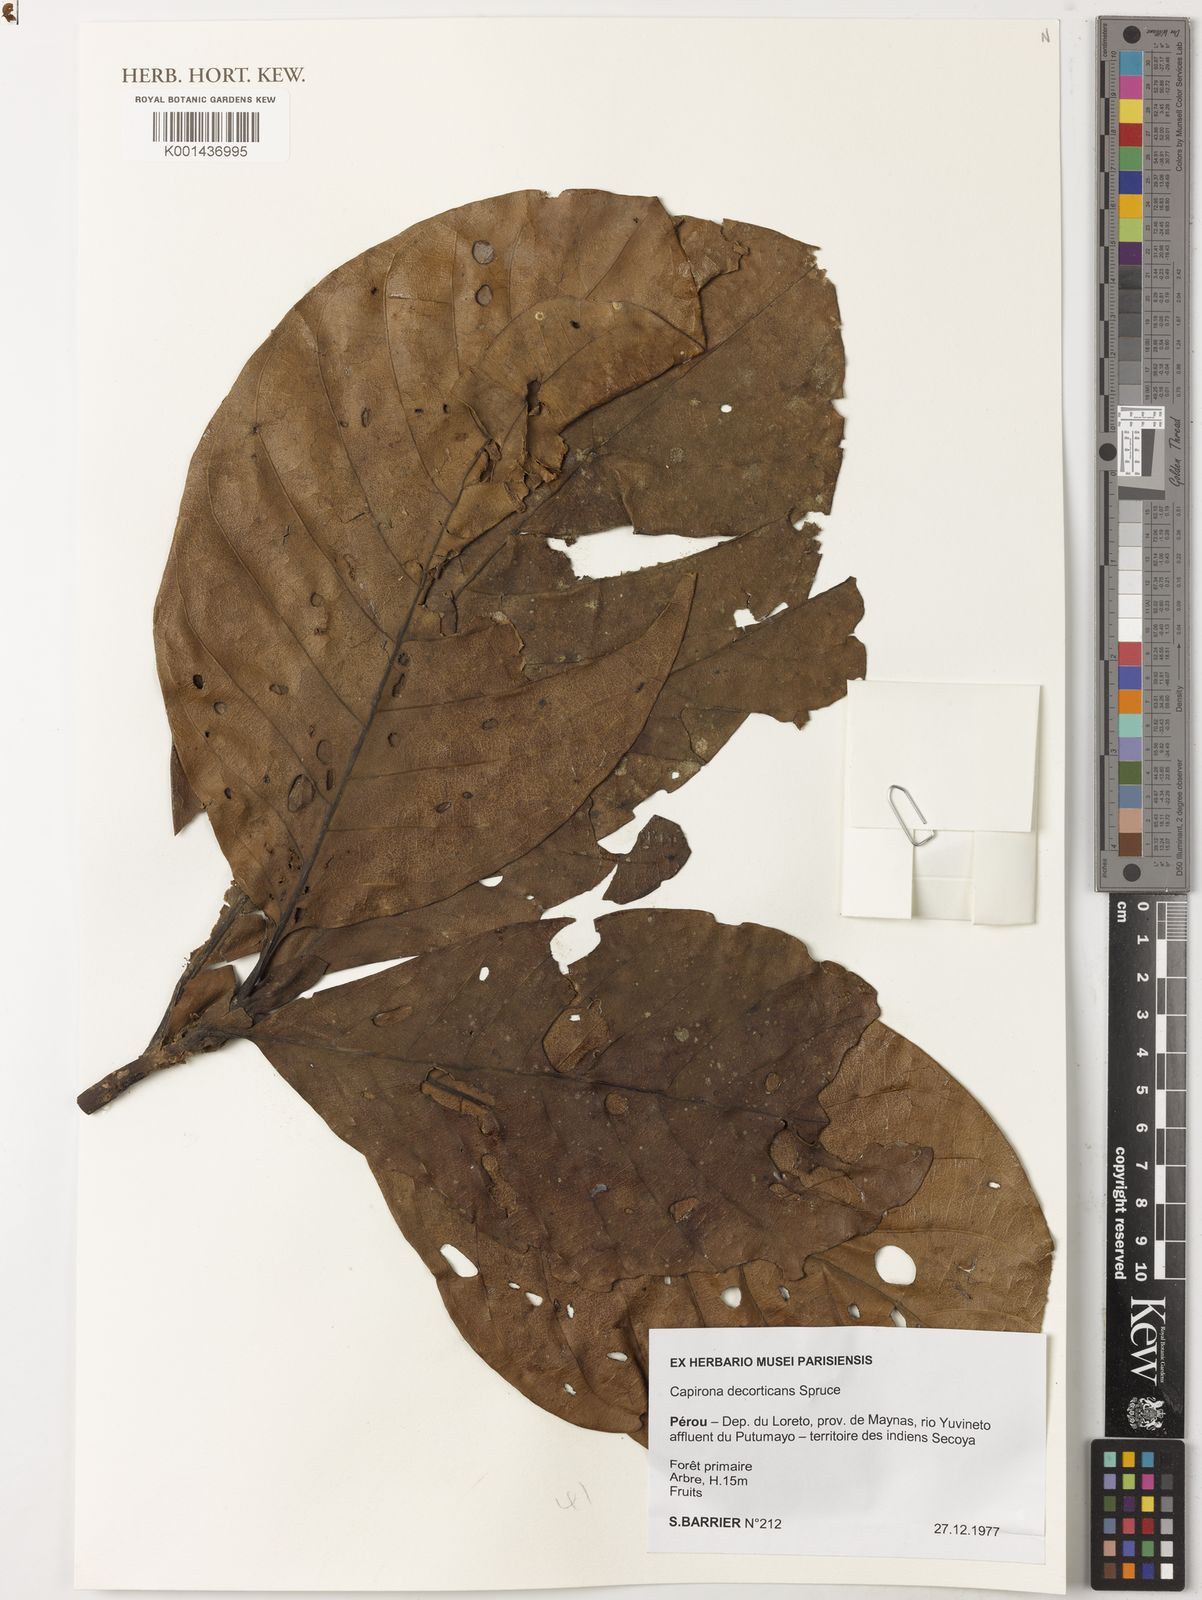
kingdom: Plantae
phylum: Tracheophyta
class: Magnoliopsida
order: Gentianales
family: Rubiaceae
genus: Capirona
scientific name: Capirona macrophylla
